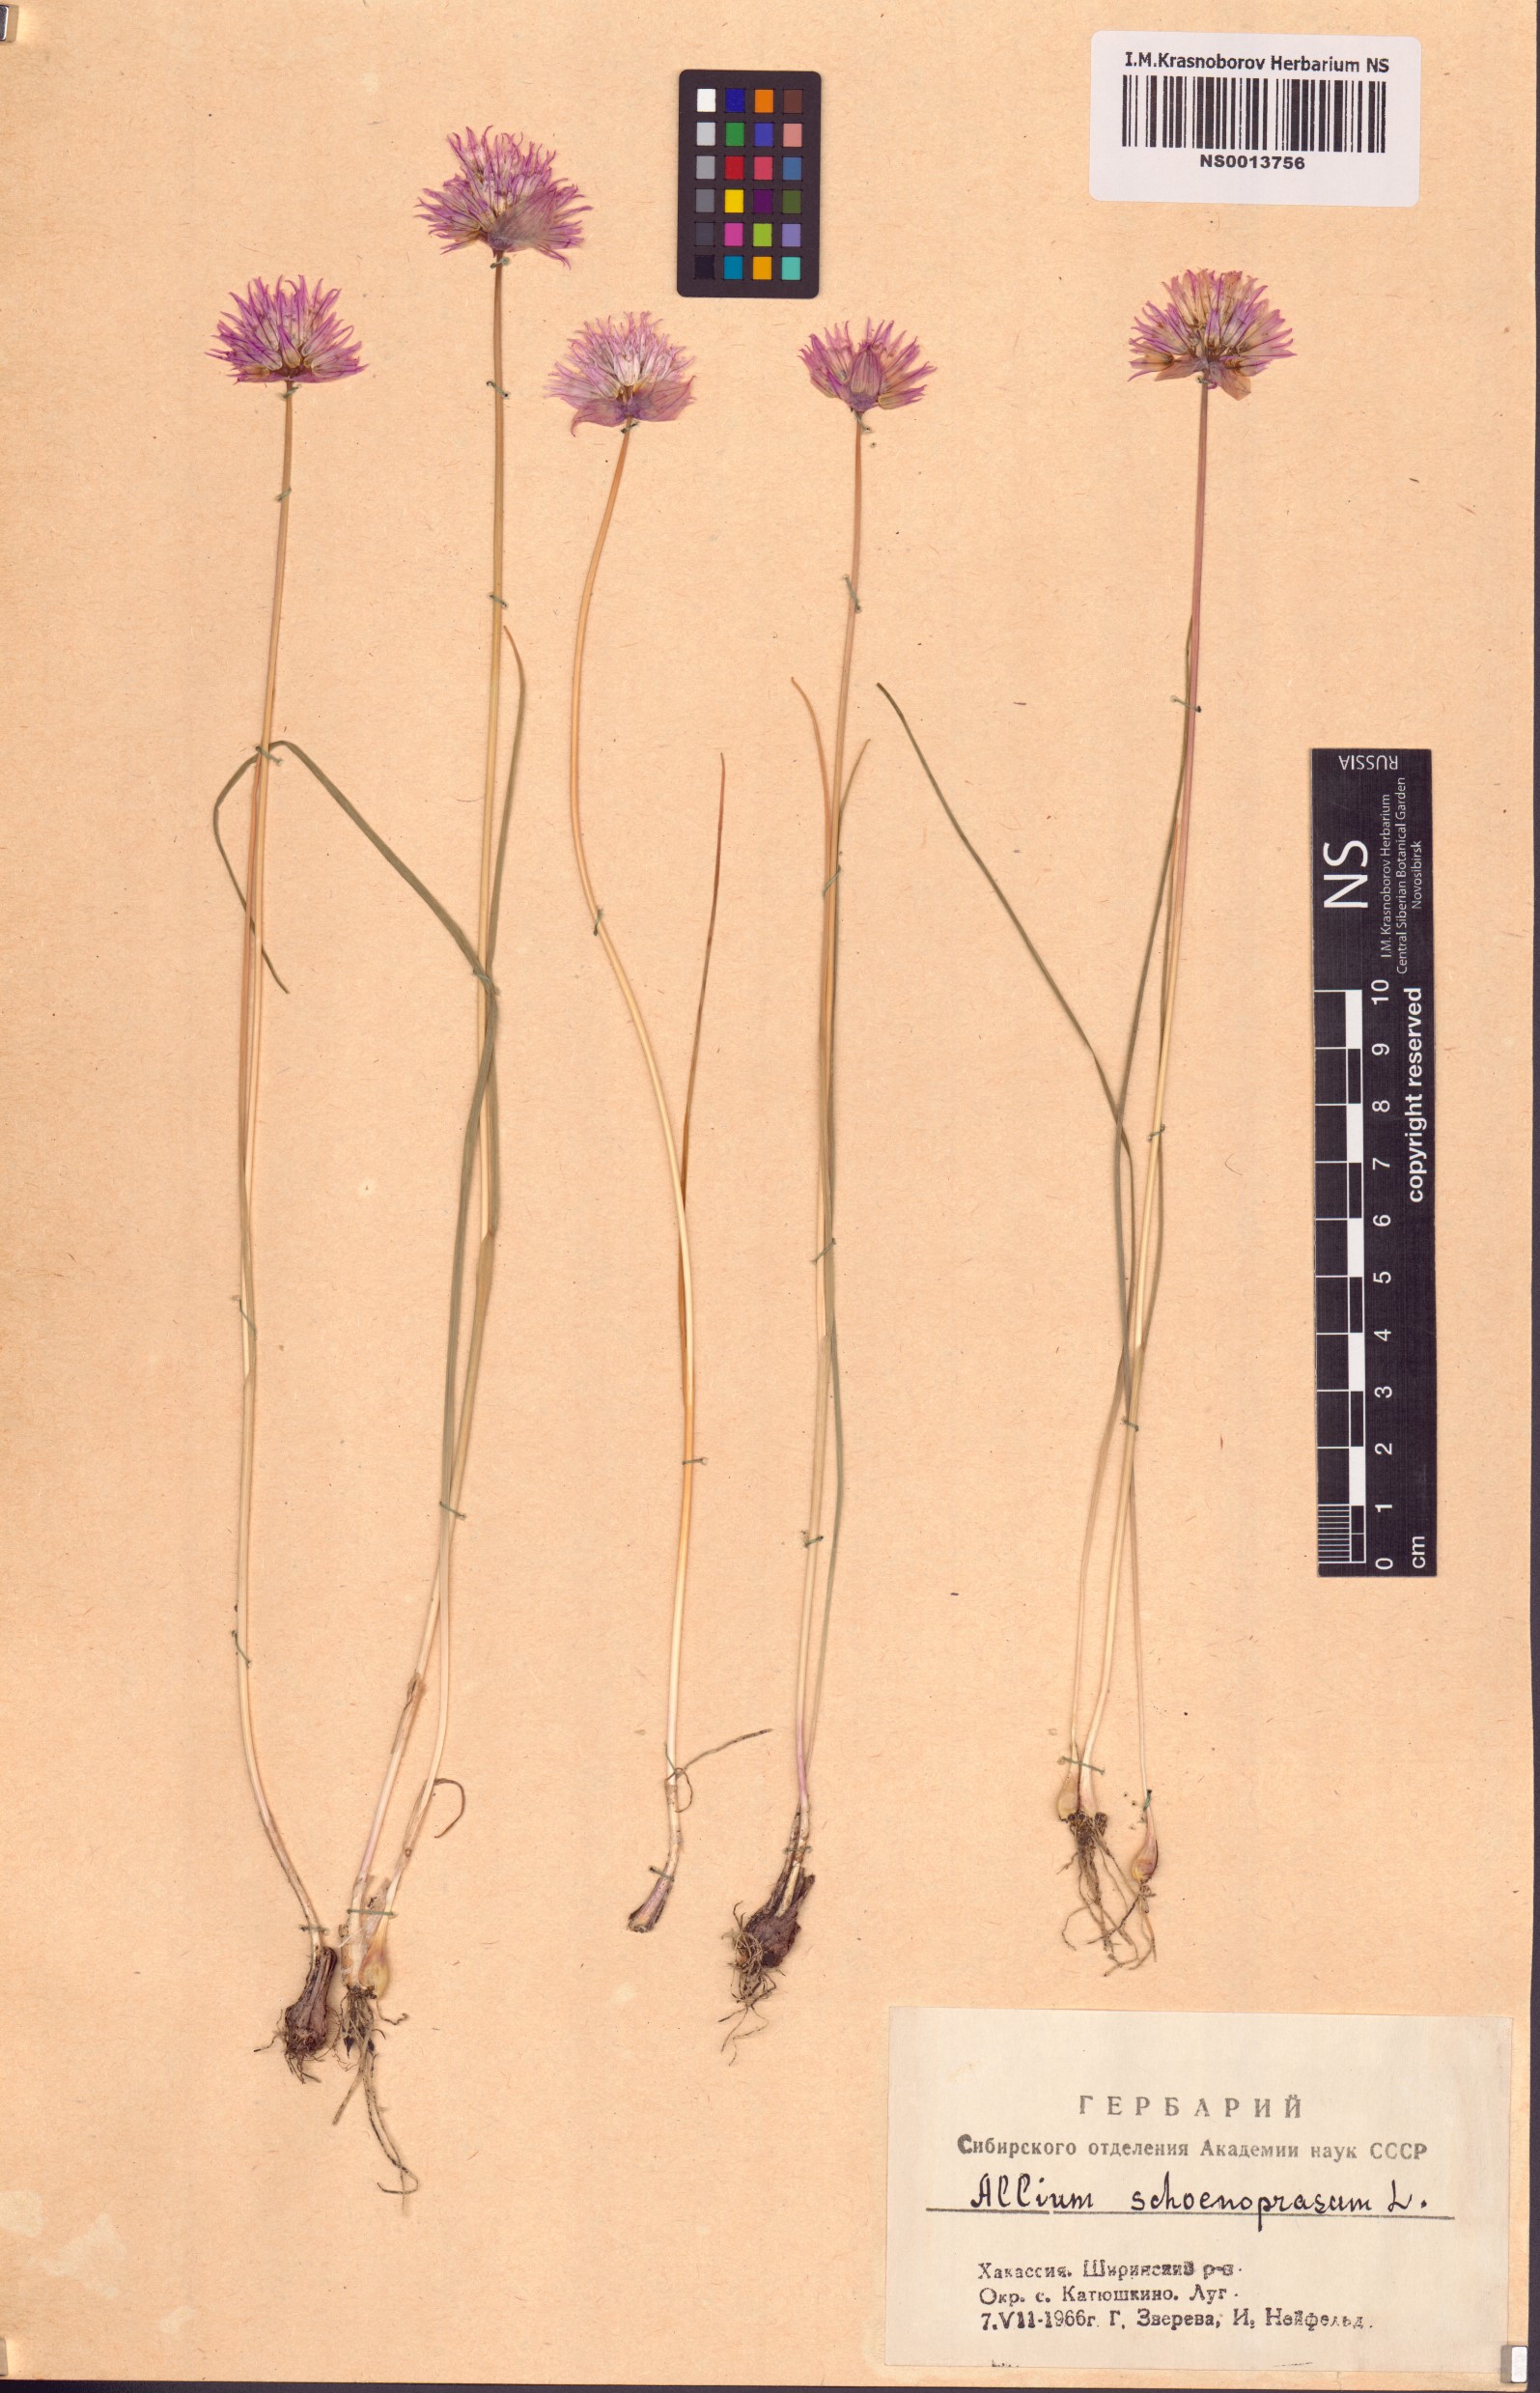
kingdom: Plantae
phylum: Tracheophyta
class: Liliopsida
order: Asparagales
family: Amaryllidaceae
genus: Allium
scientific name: Allium schoenoprasum
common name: Chives
